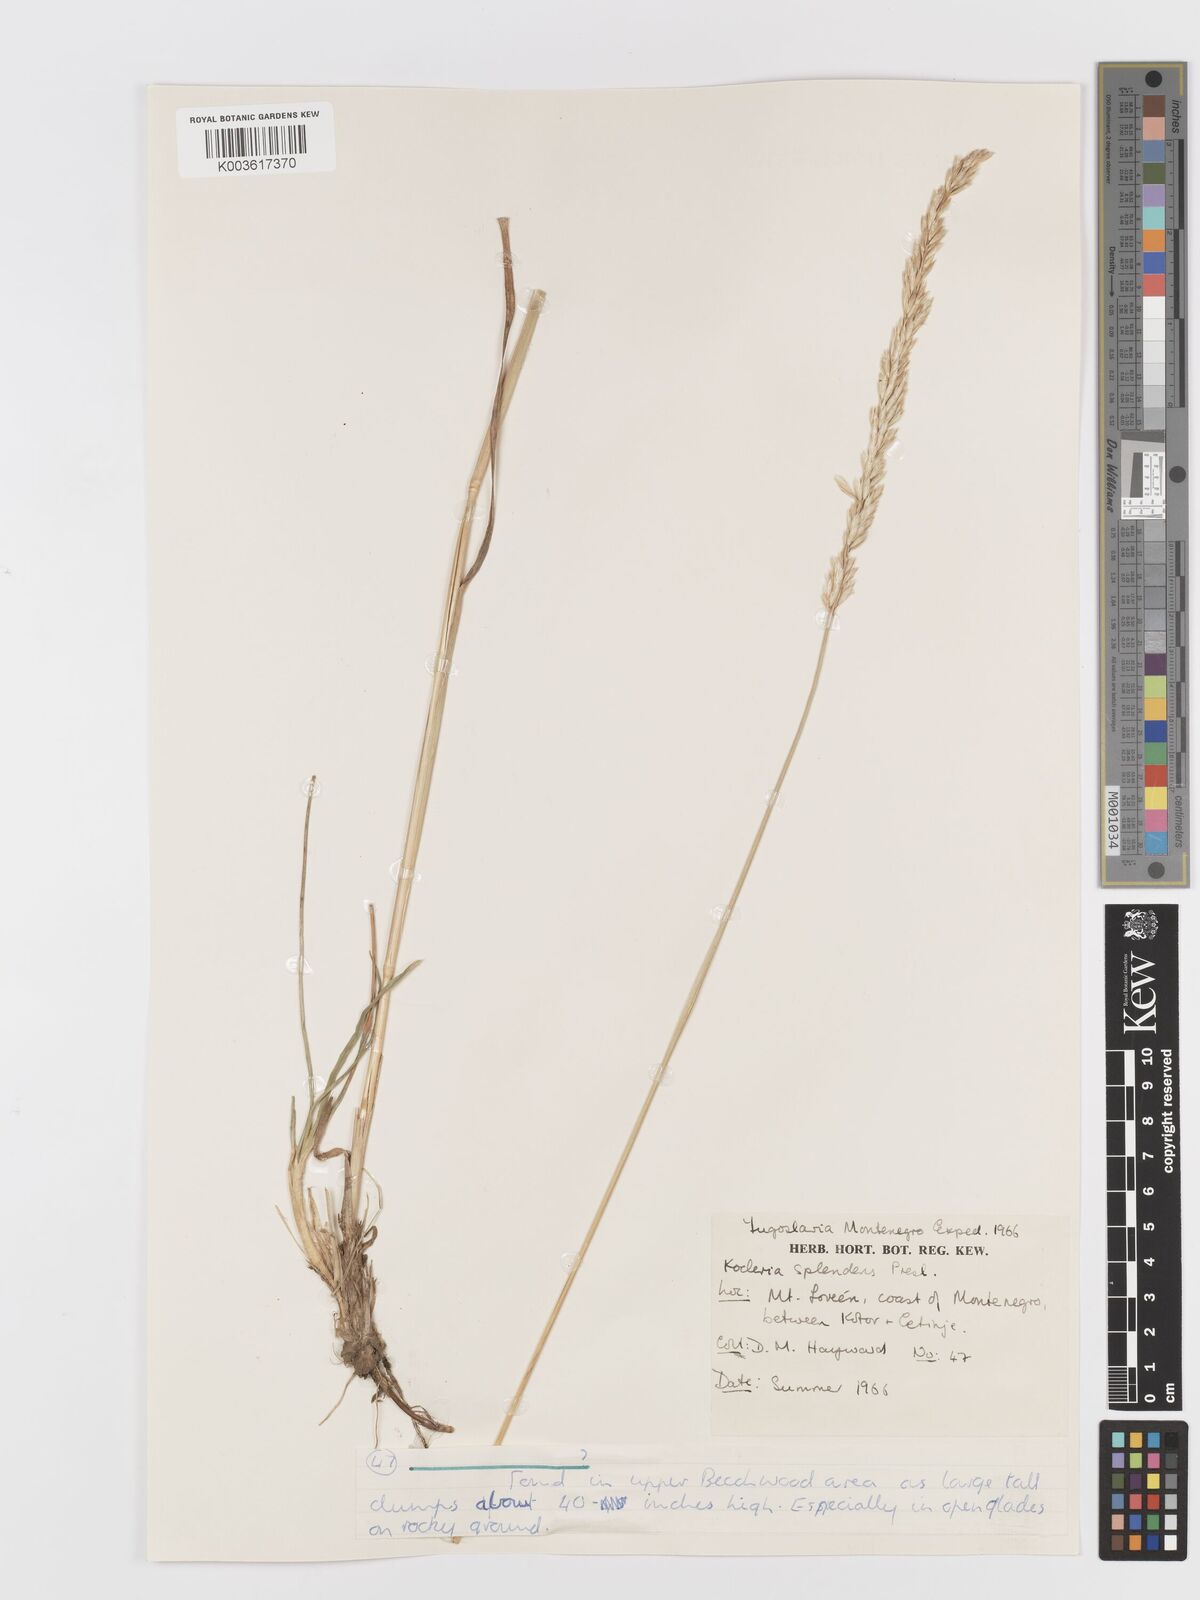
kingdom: Plantae
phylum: Tracheophyta
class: Liliopsida
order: Poales
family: Poaceae
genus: Koeleria
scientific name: Koeleria
